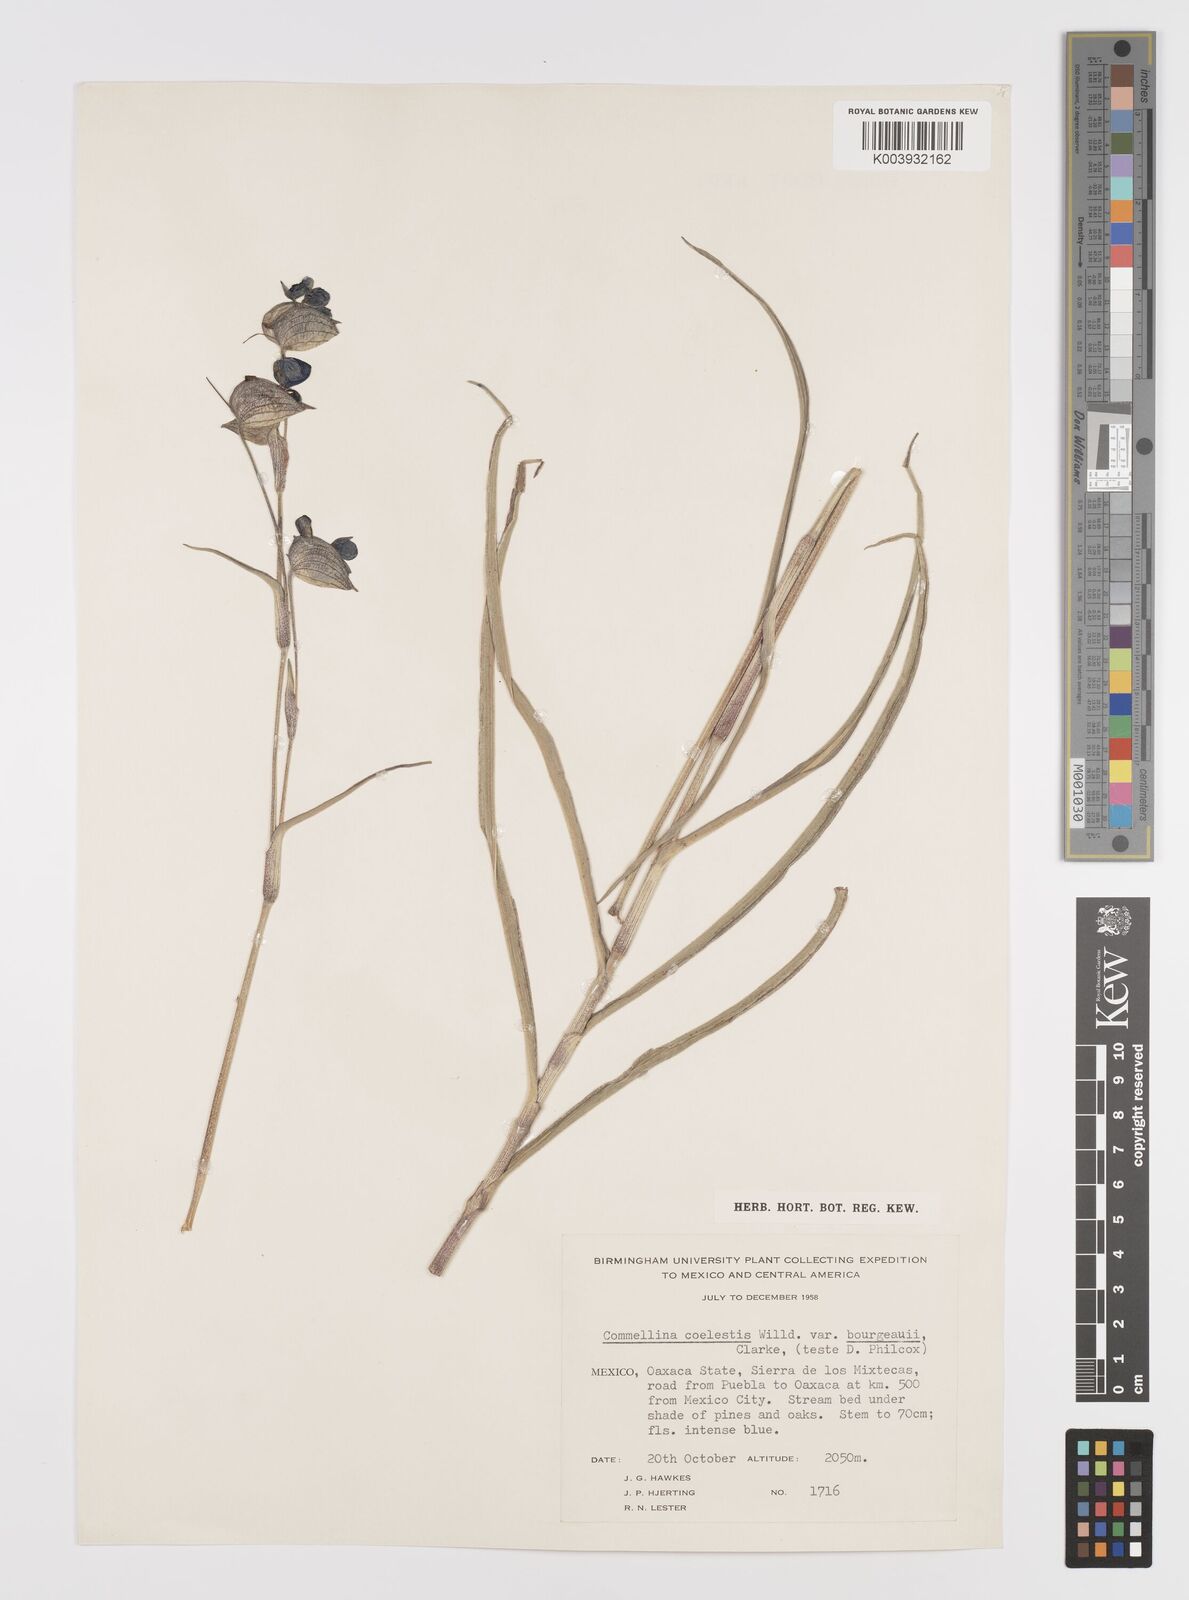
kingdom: Plantae
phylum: Tracheophyta
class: Liliopsida
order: Commelinales
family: Commelinaceae
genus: Commelina
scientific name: Commelina
